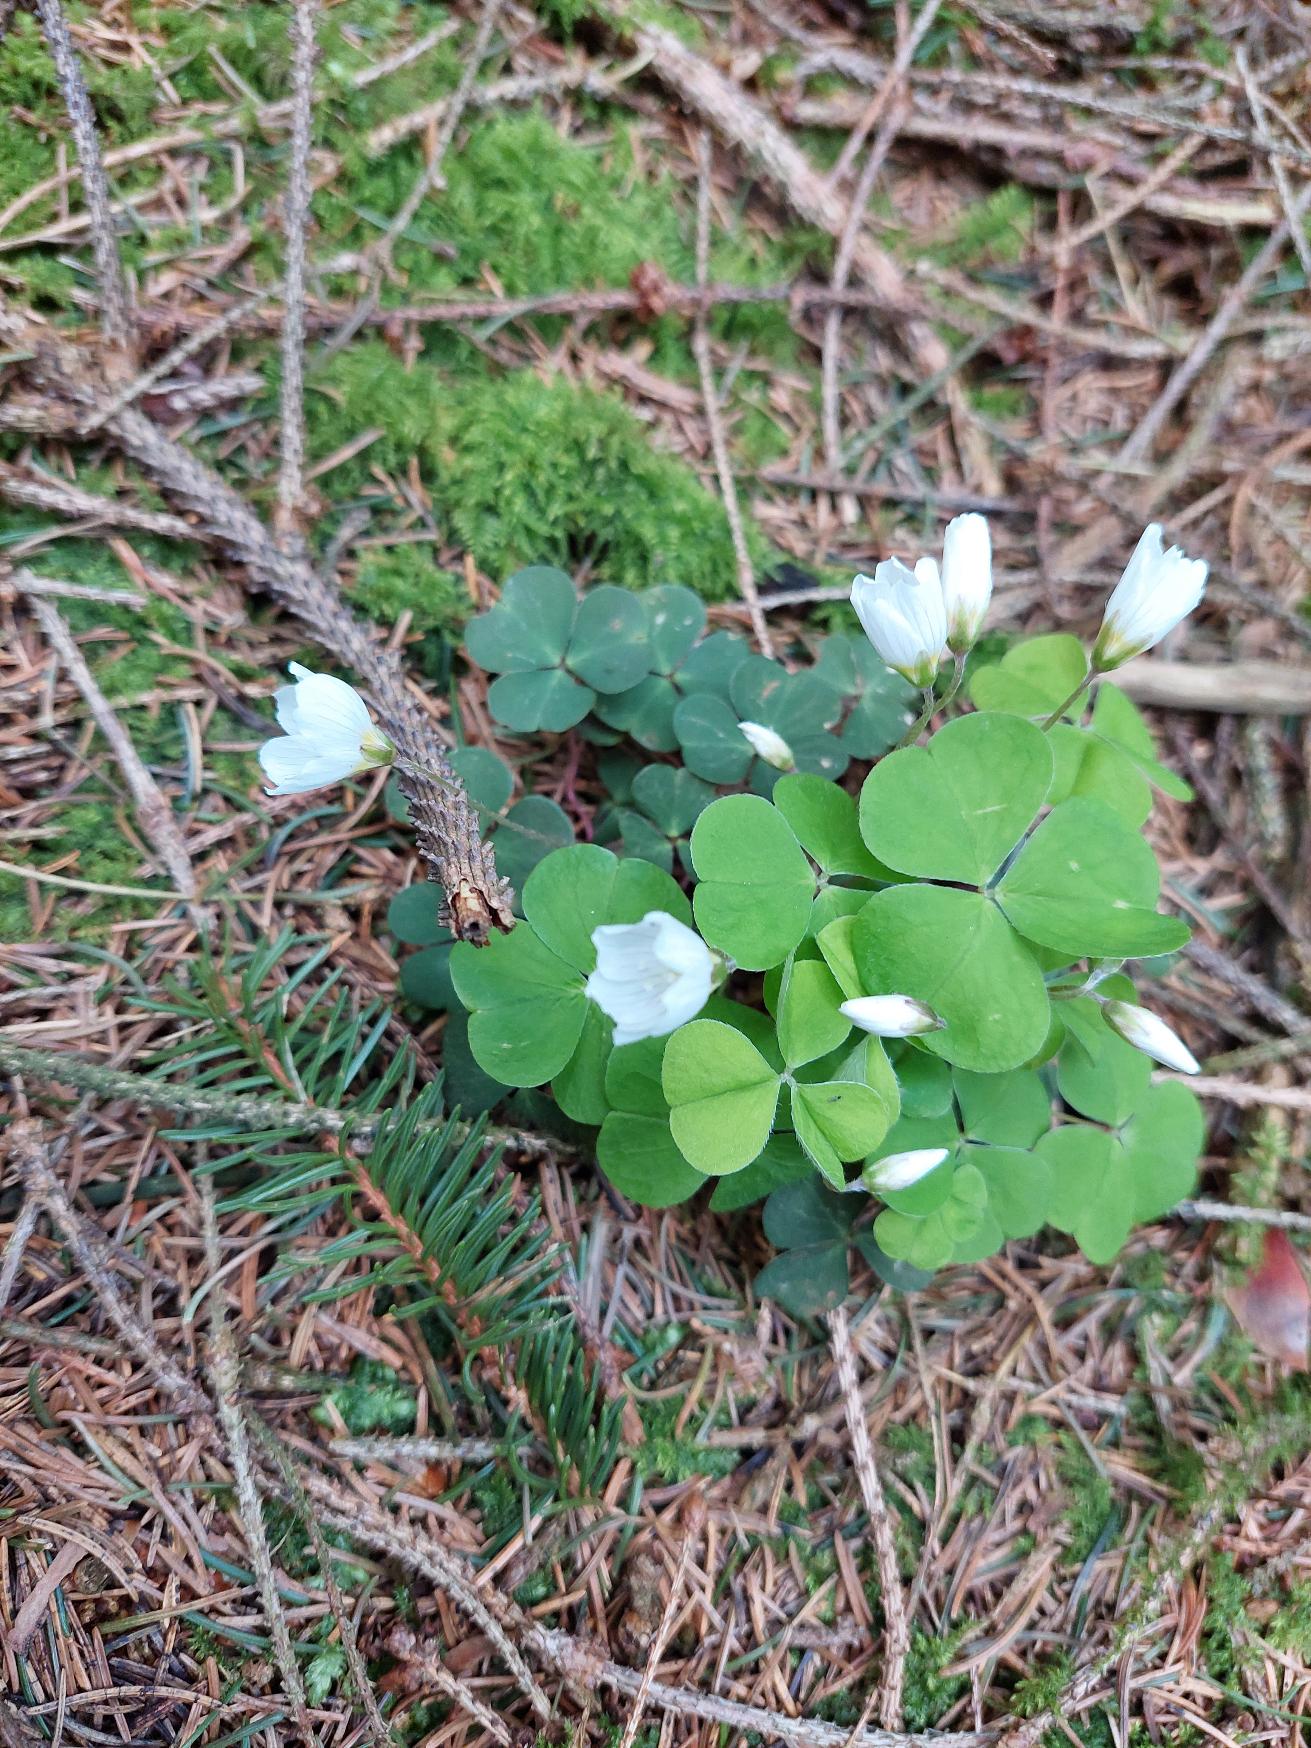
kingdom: Plantae
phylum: Tracheophyta
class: Magnoliopsida
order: Oxalidales
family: Oxalidaceae
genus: Oxalis
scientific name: Oxalis acetosella
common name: Skovsyre
